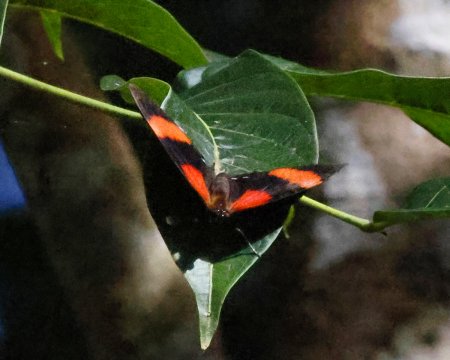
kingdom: Animalia
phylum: Arthropoda
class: Insecta
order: Lepidoptera
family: Nymphalidae
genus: Catagramma
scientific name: Catagramma Callicore pitheas
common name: Two-eyed Eighty-eight
